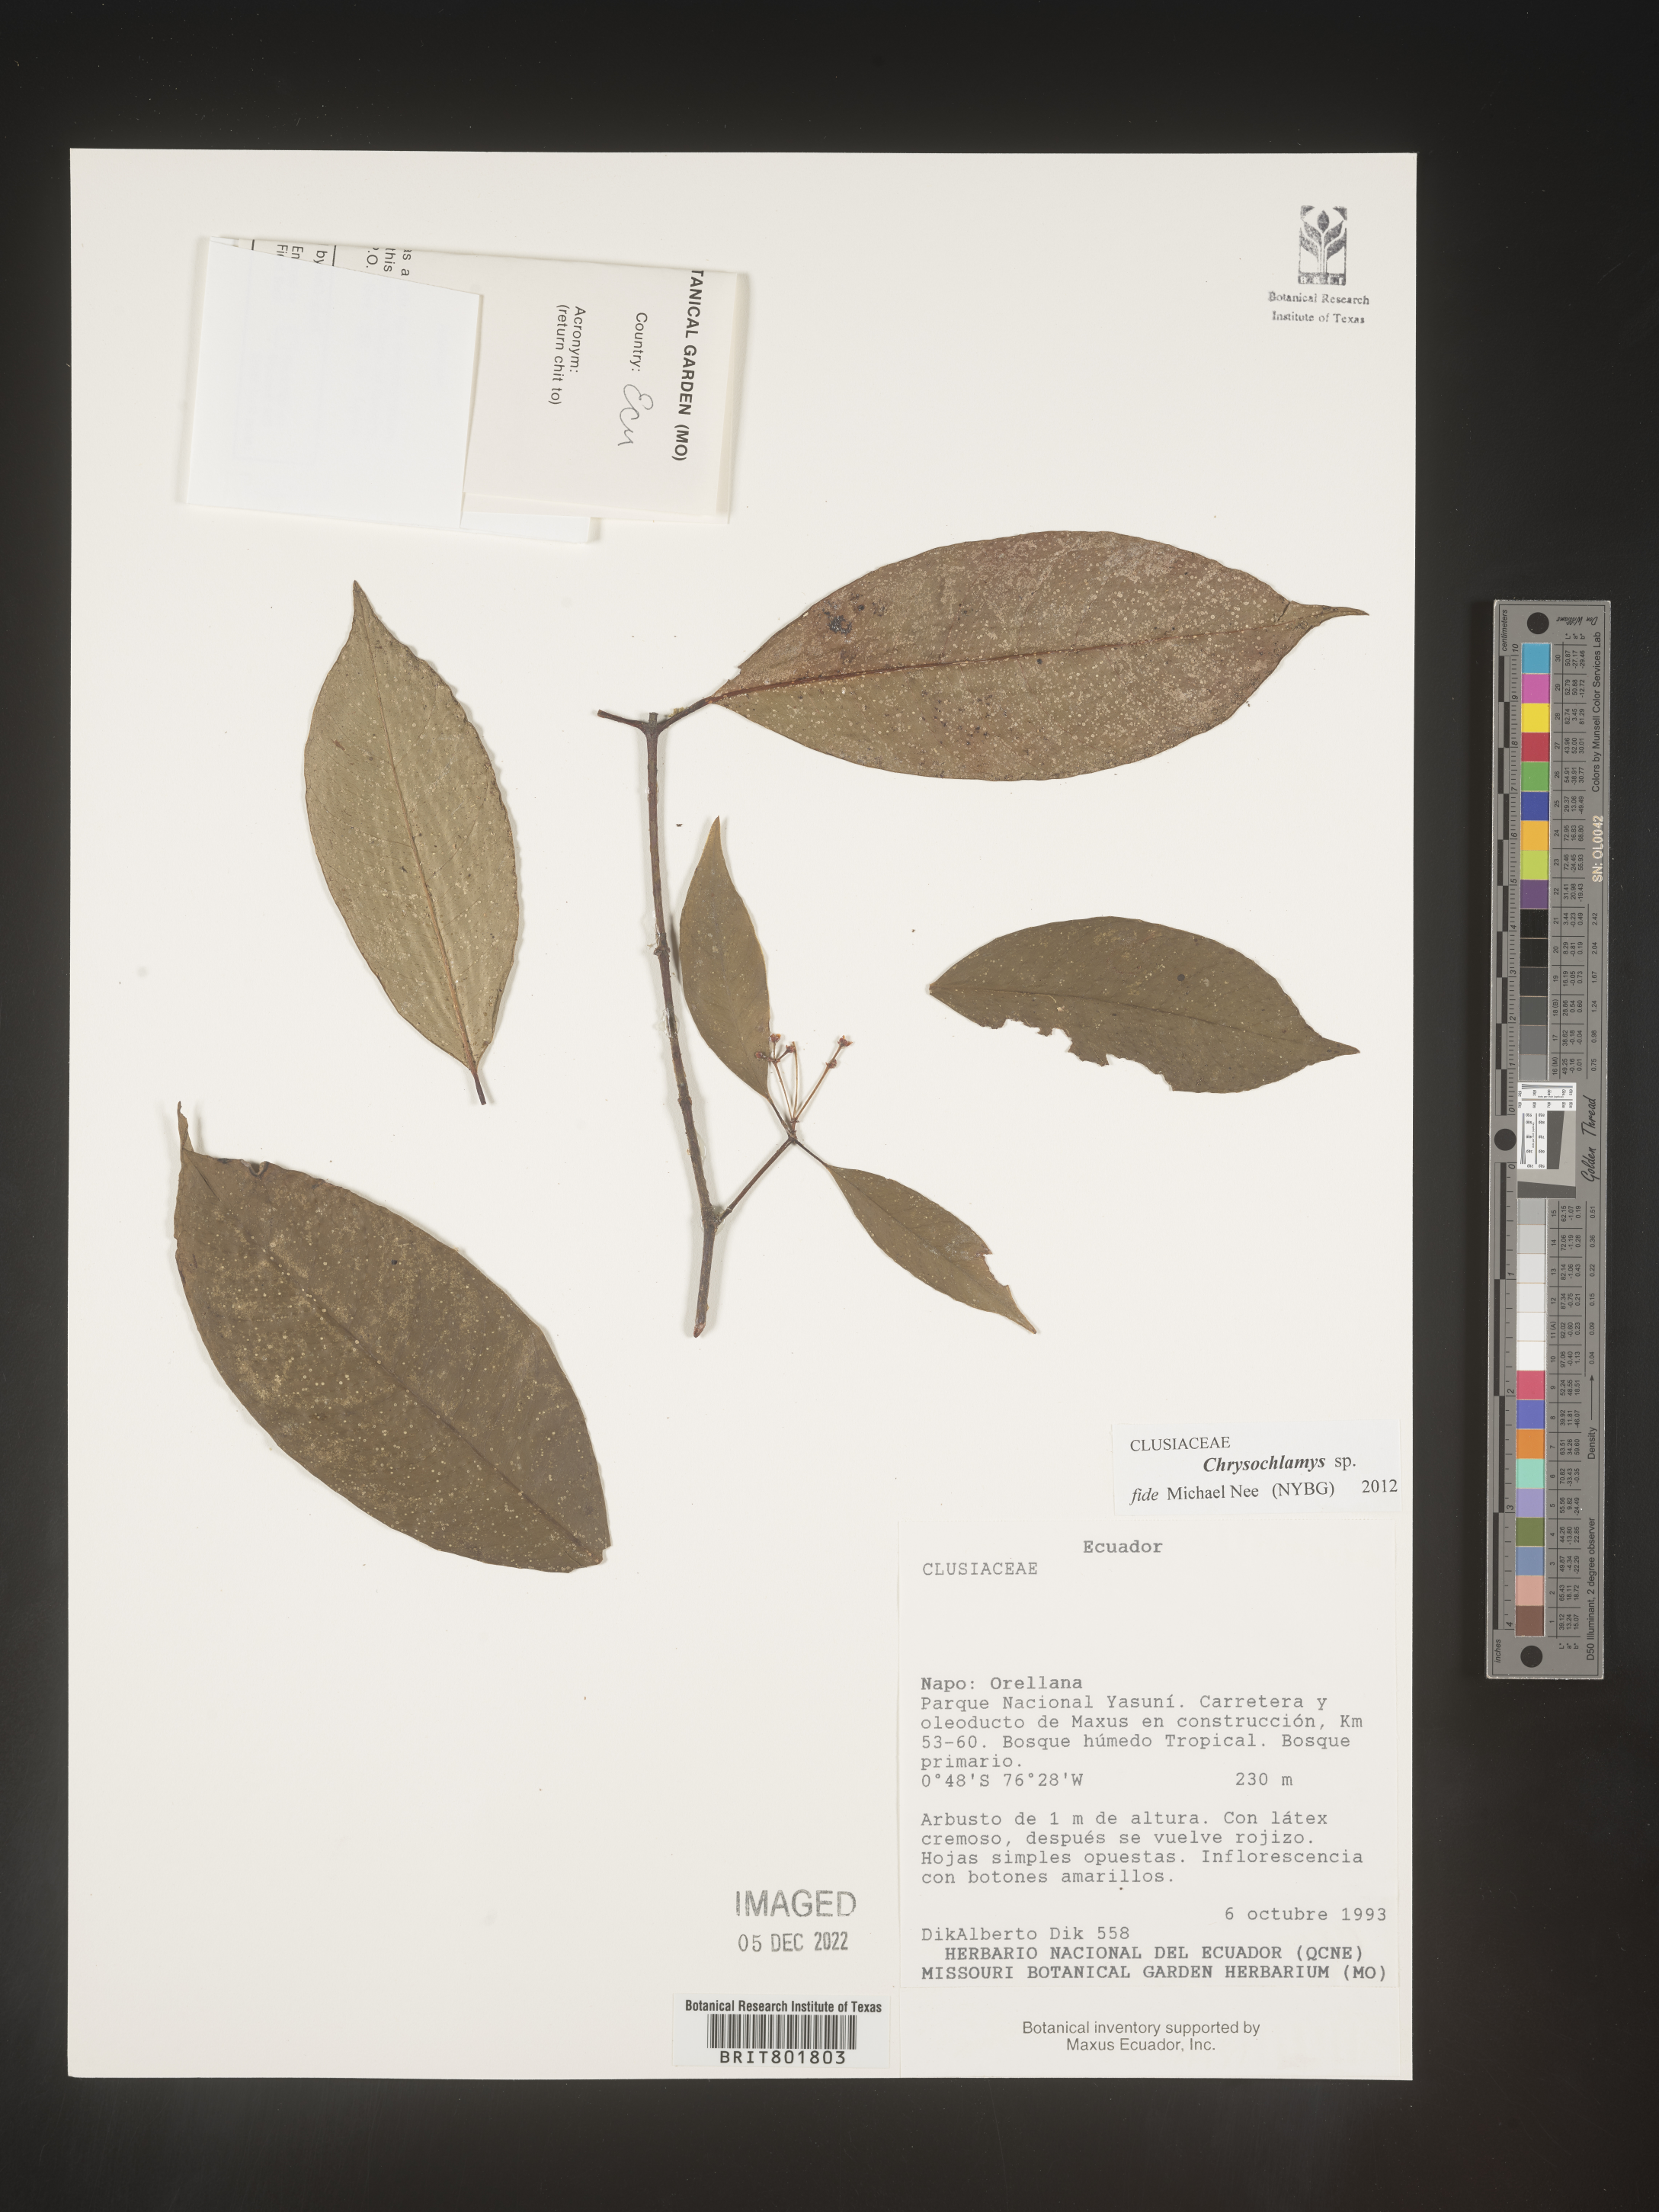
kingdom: Plantae
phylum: Tracheophyta
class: Magnoliopsida
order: Malpighiales
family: Clusiaceae
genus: Chrysochlamys
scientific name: Chrysochlamys
